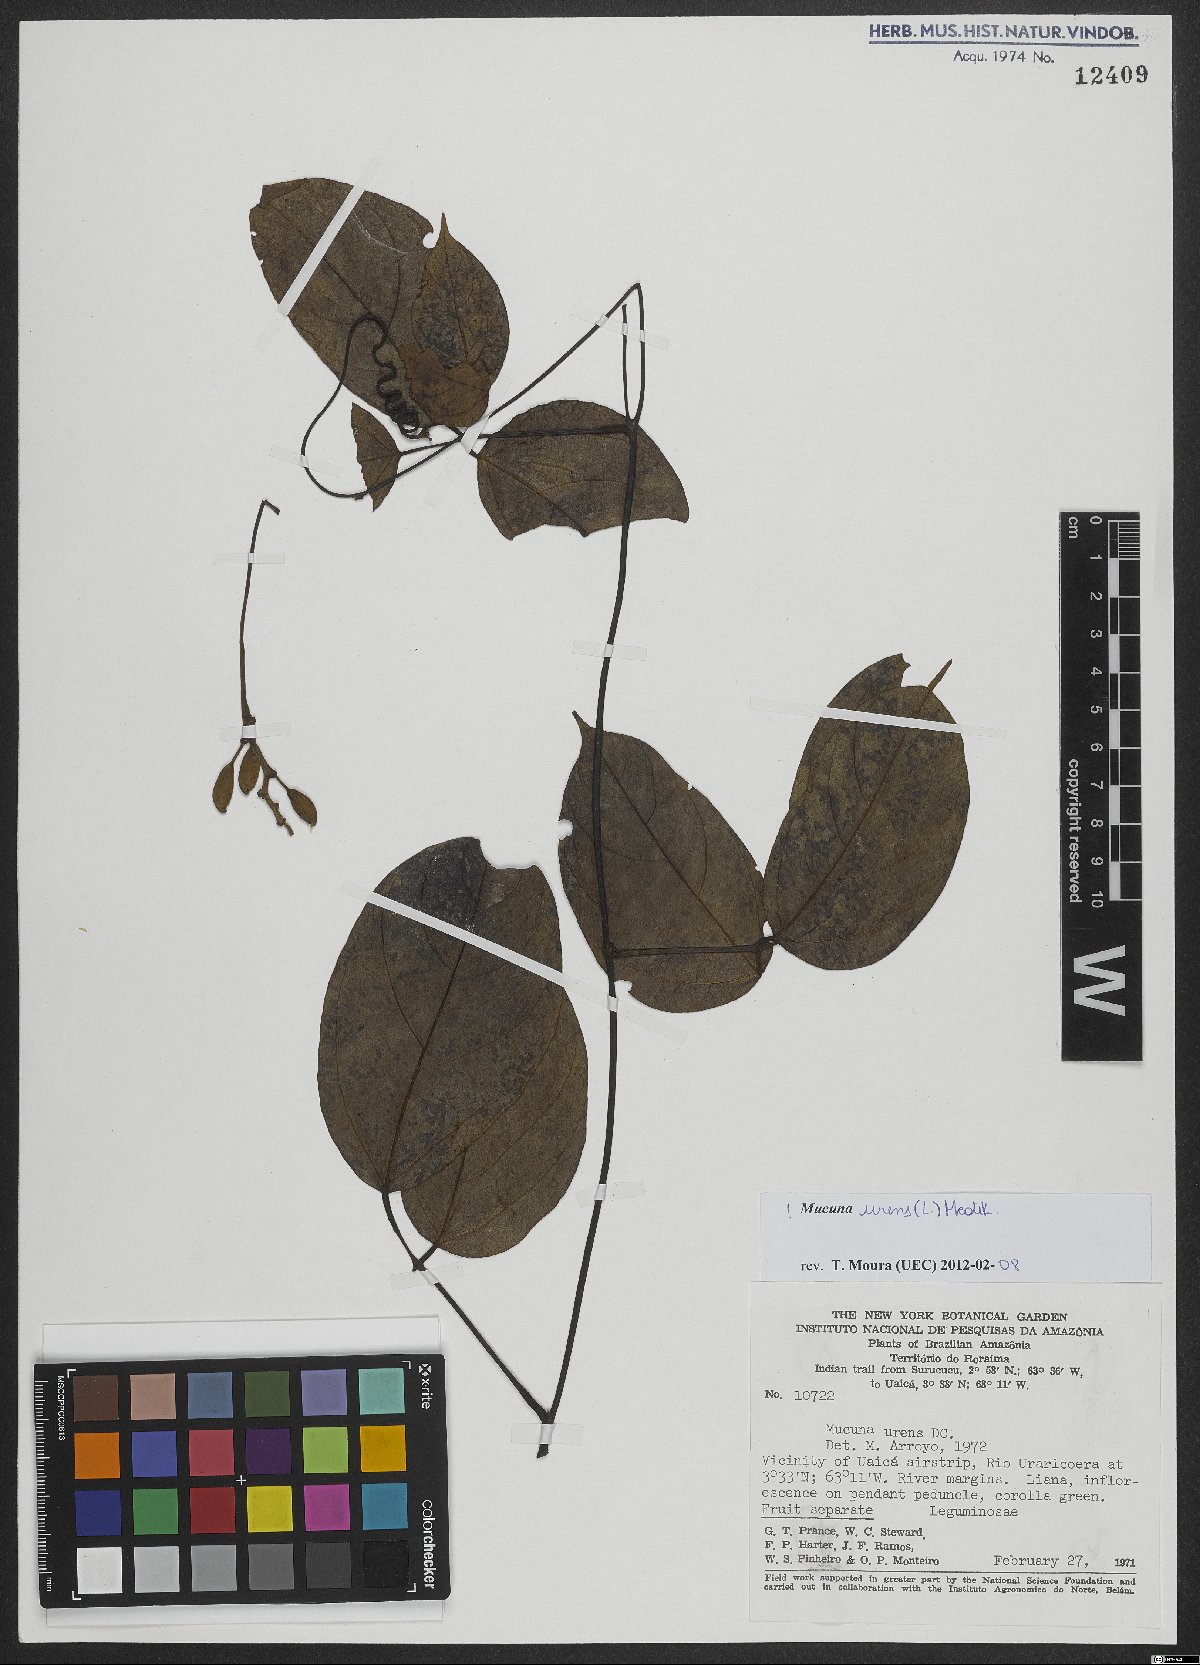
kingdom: Plantae
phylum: Tracheophyta
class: Magnoliopsida
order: Fabales
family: Fabaceae
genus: Mucuna
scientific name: Mucuna urens
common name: Red hamburger bean
